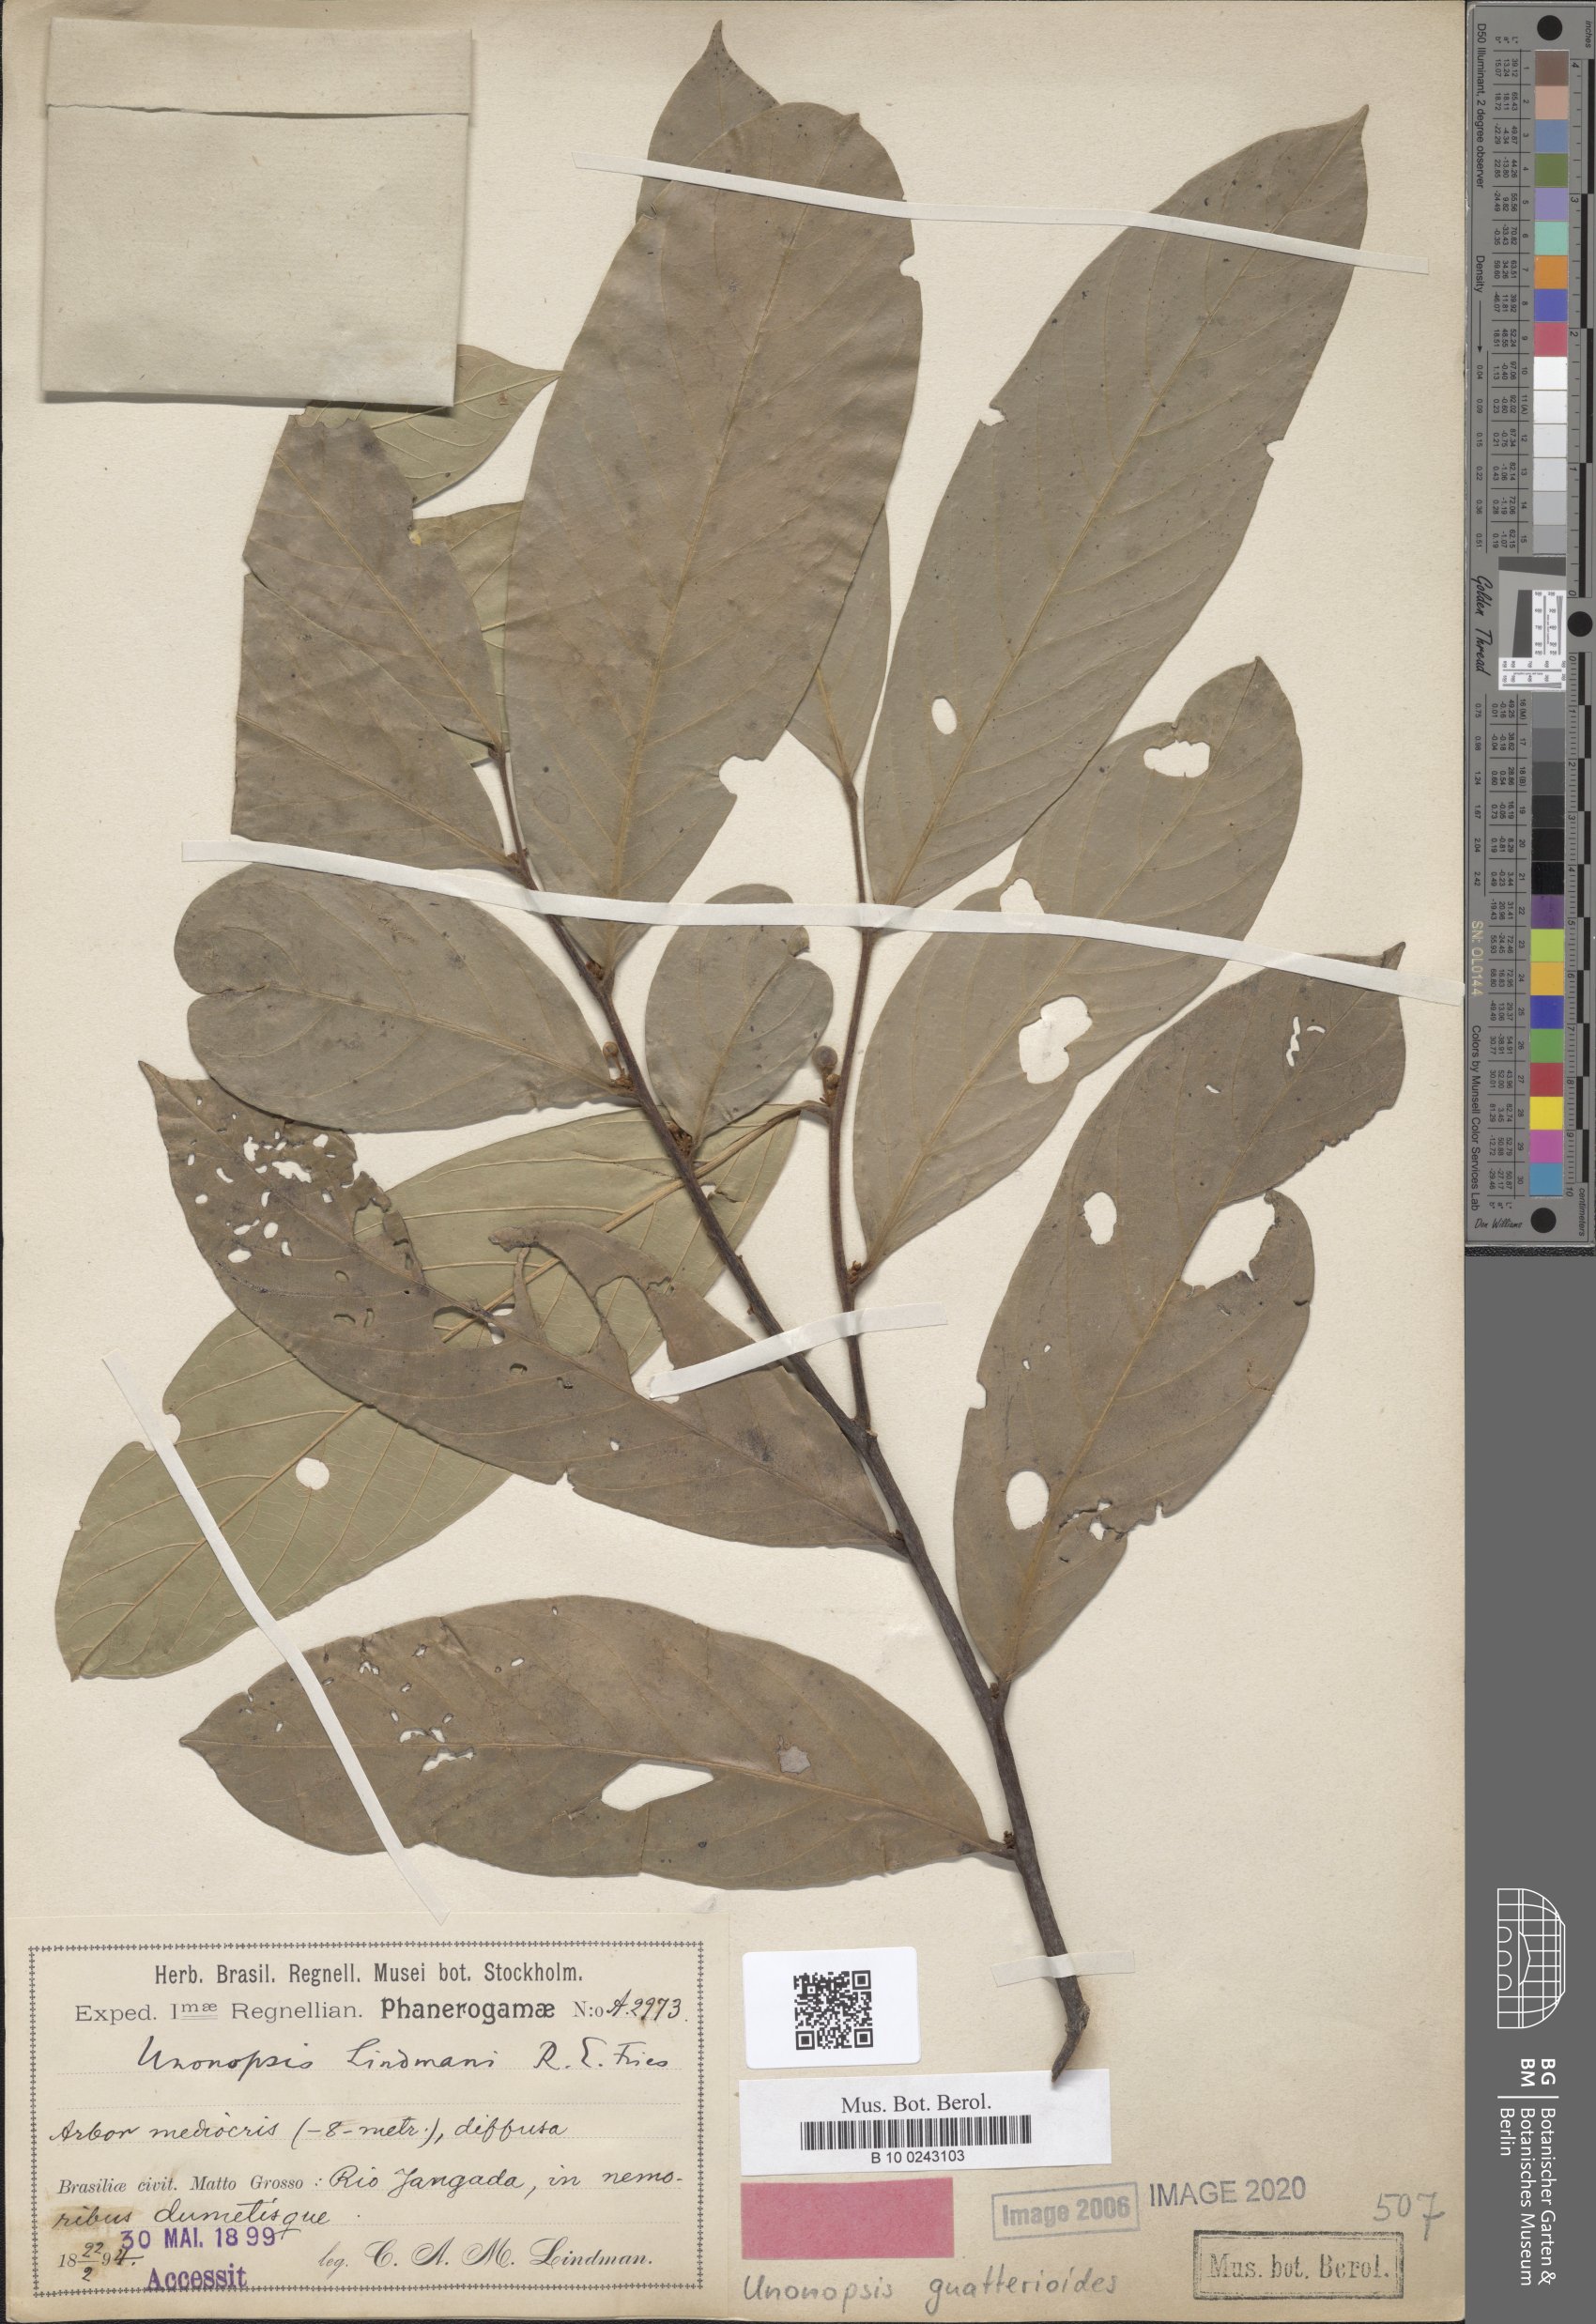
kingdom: Plantae
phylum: Tracheophyta
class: Magnoliopsida
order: Magnoliales
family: Annonaceae
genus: Unonopsis
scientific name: Unonopsis guatterioides
